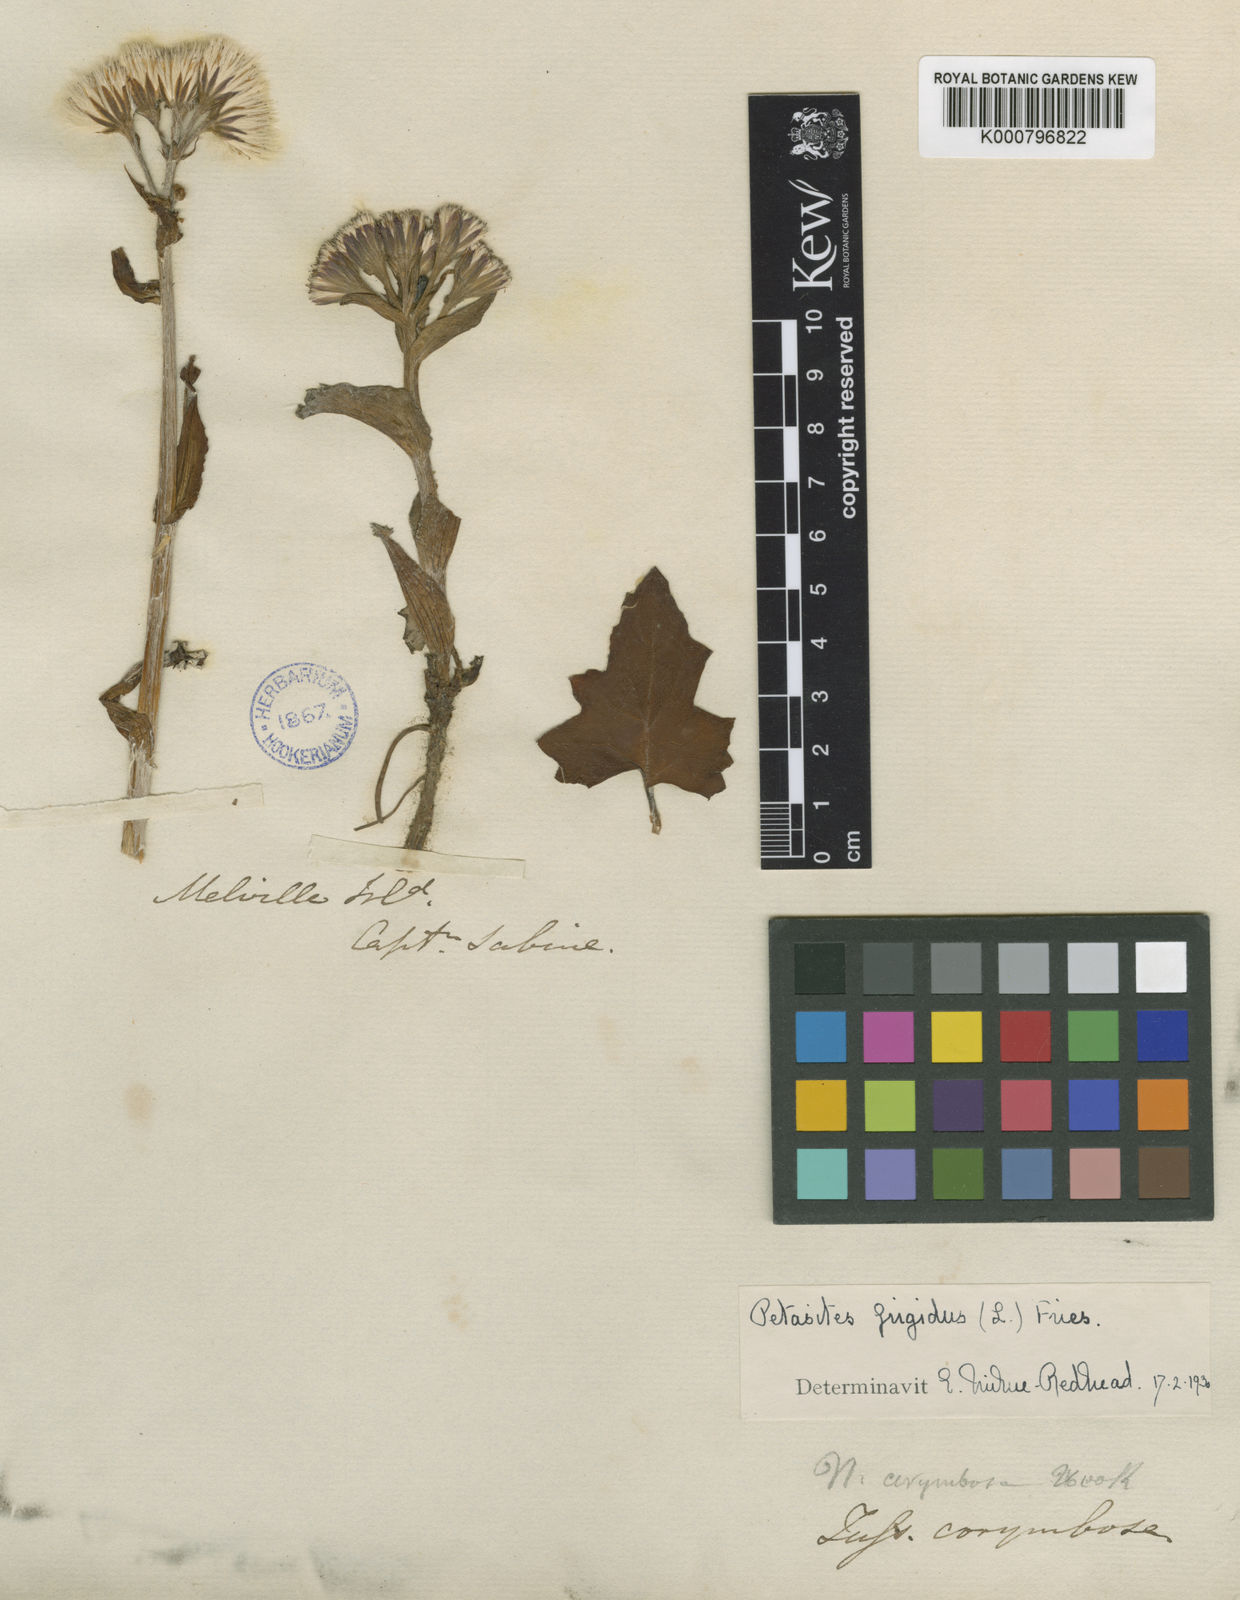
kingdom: Plantae
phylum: Tracheophyta
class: Magnoliopsida
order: Asterales
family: Asteraceae
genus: Petasites
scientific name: Petasites frigidus
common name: Arctic butterbur
